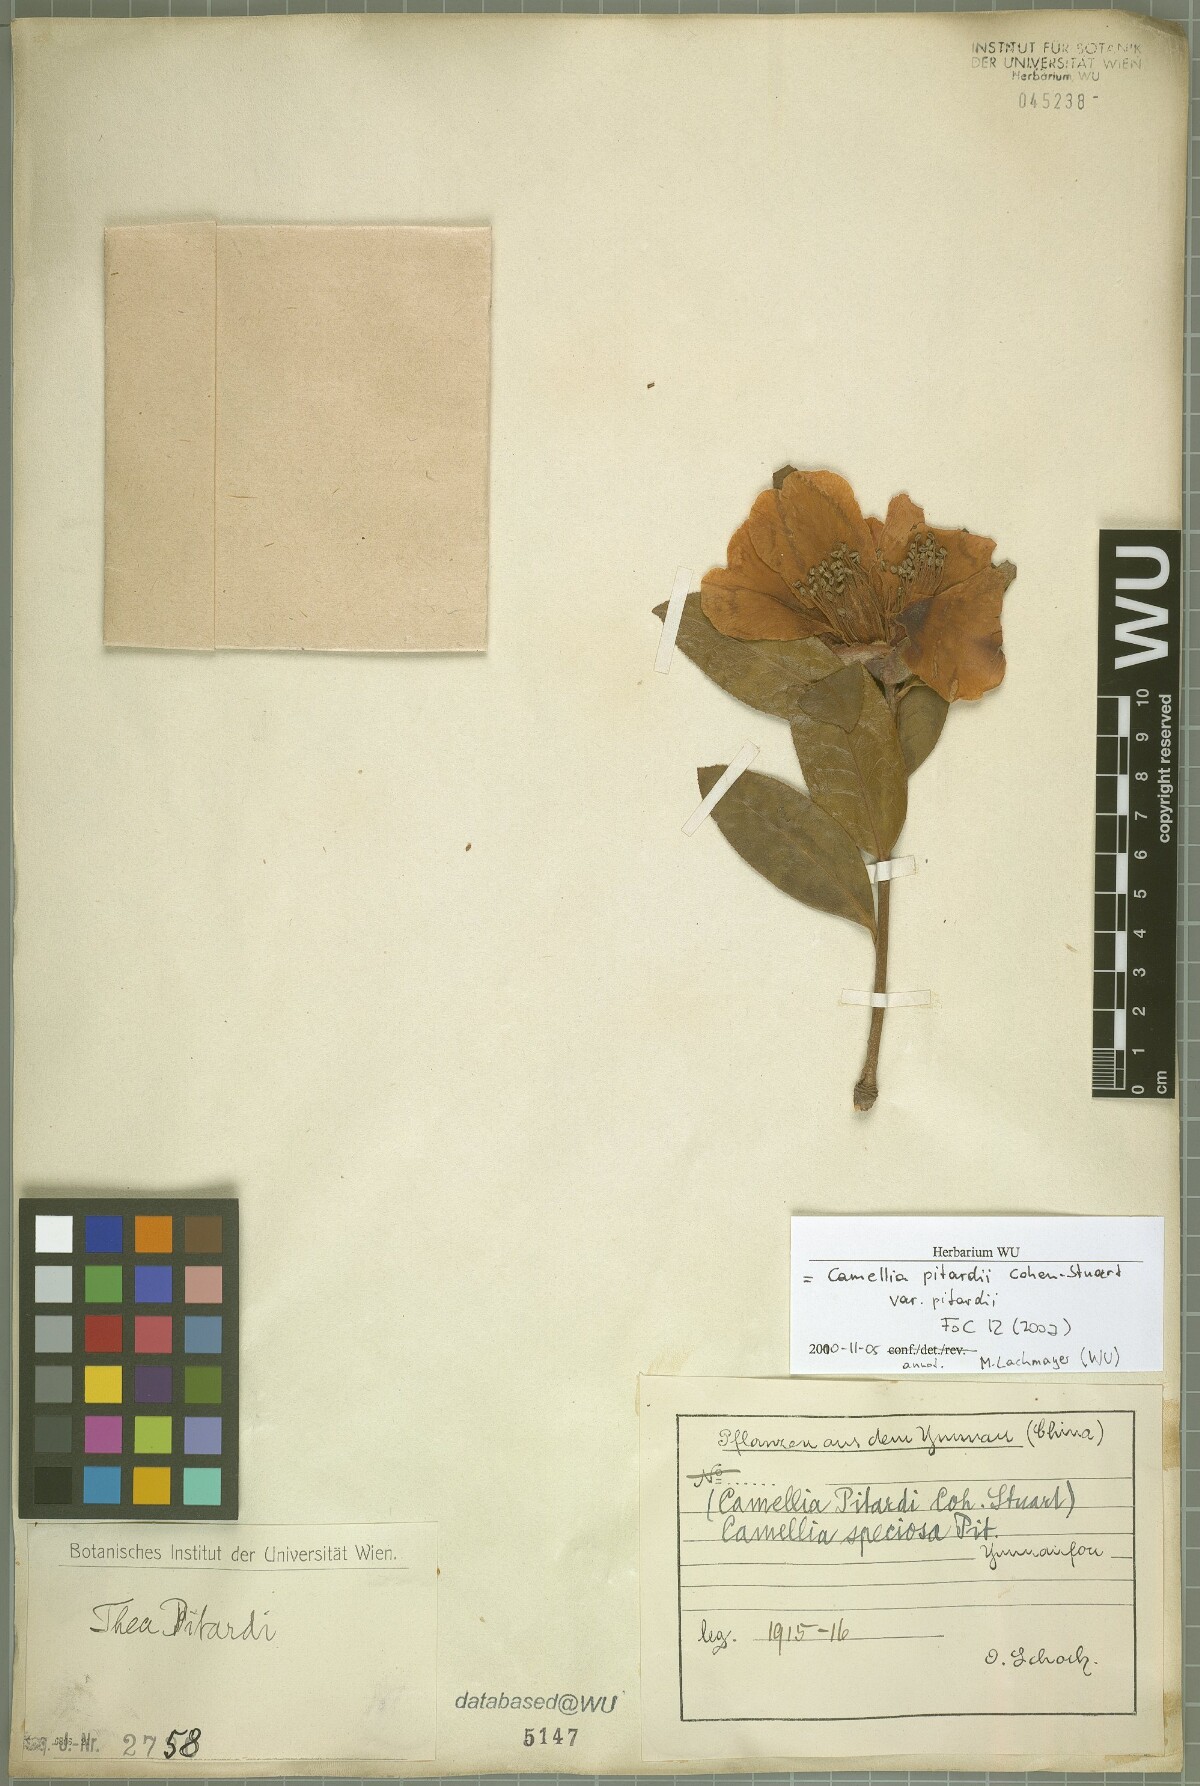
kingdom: Plantae
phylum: Tracheophyta
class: Magnoliopsida
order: Ericales
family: Theaceae
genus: Camellia
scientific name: Camellia pitardii
